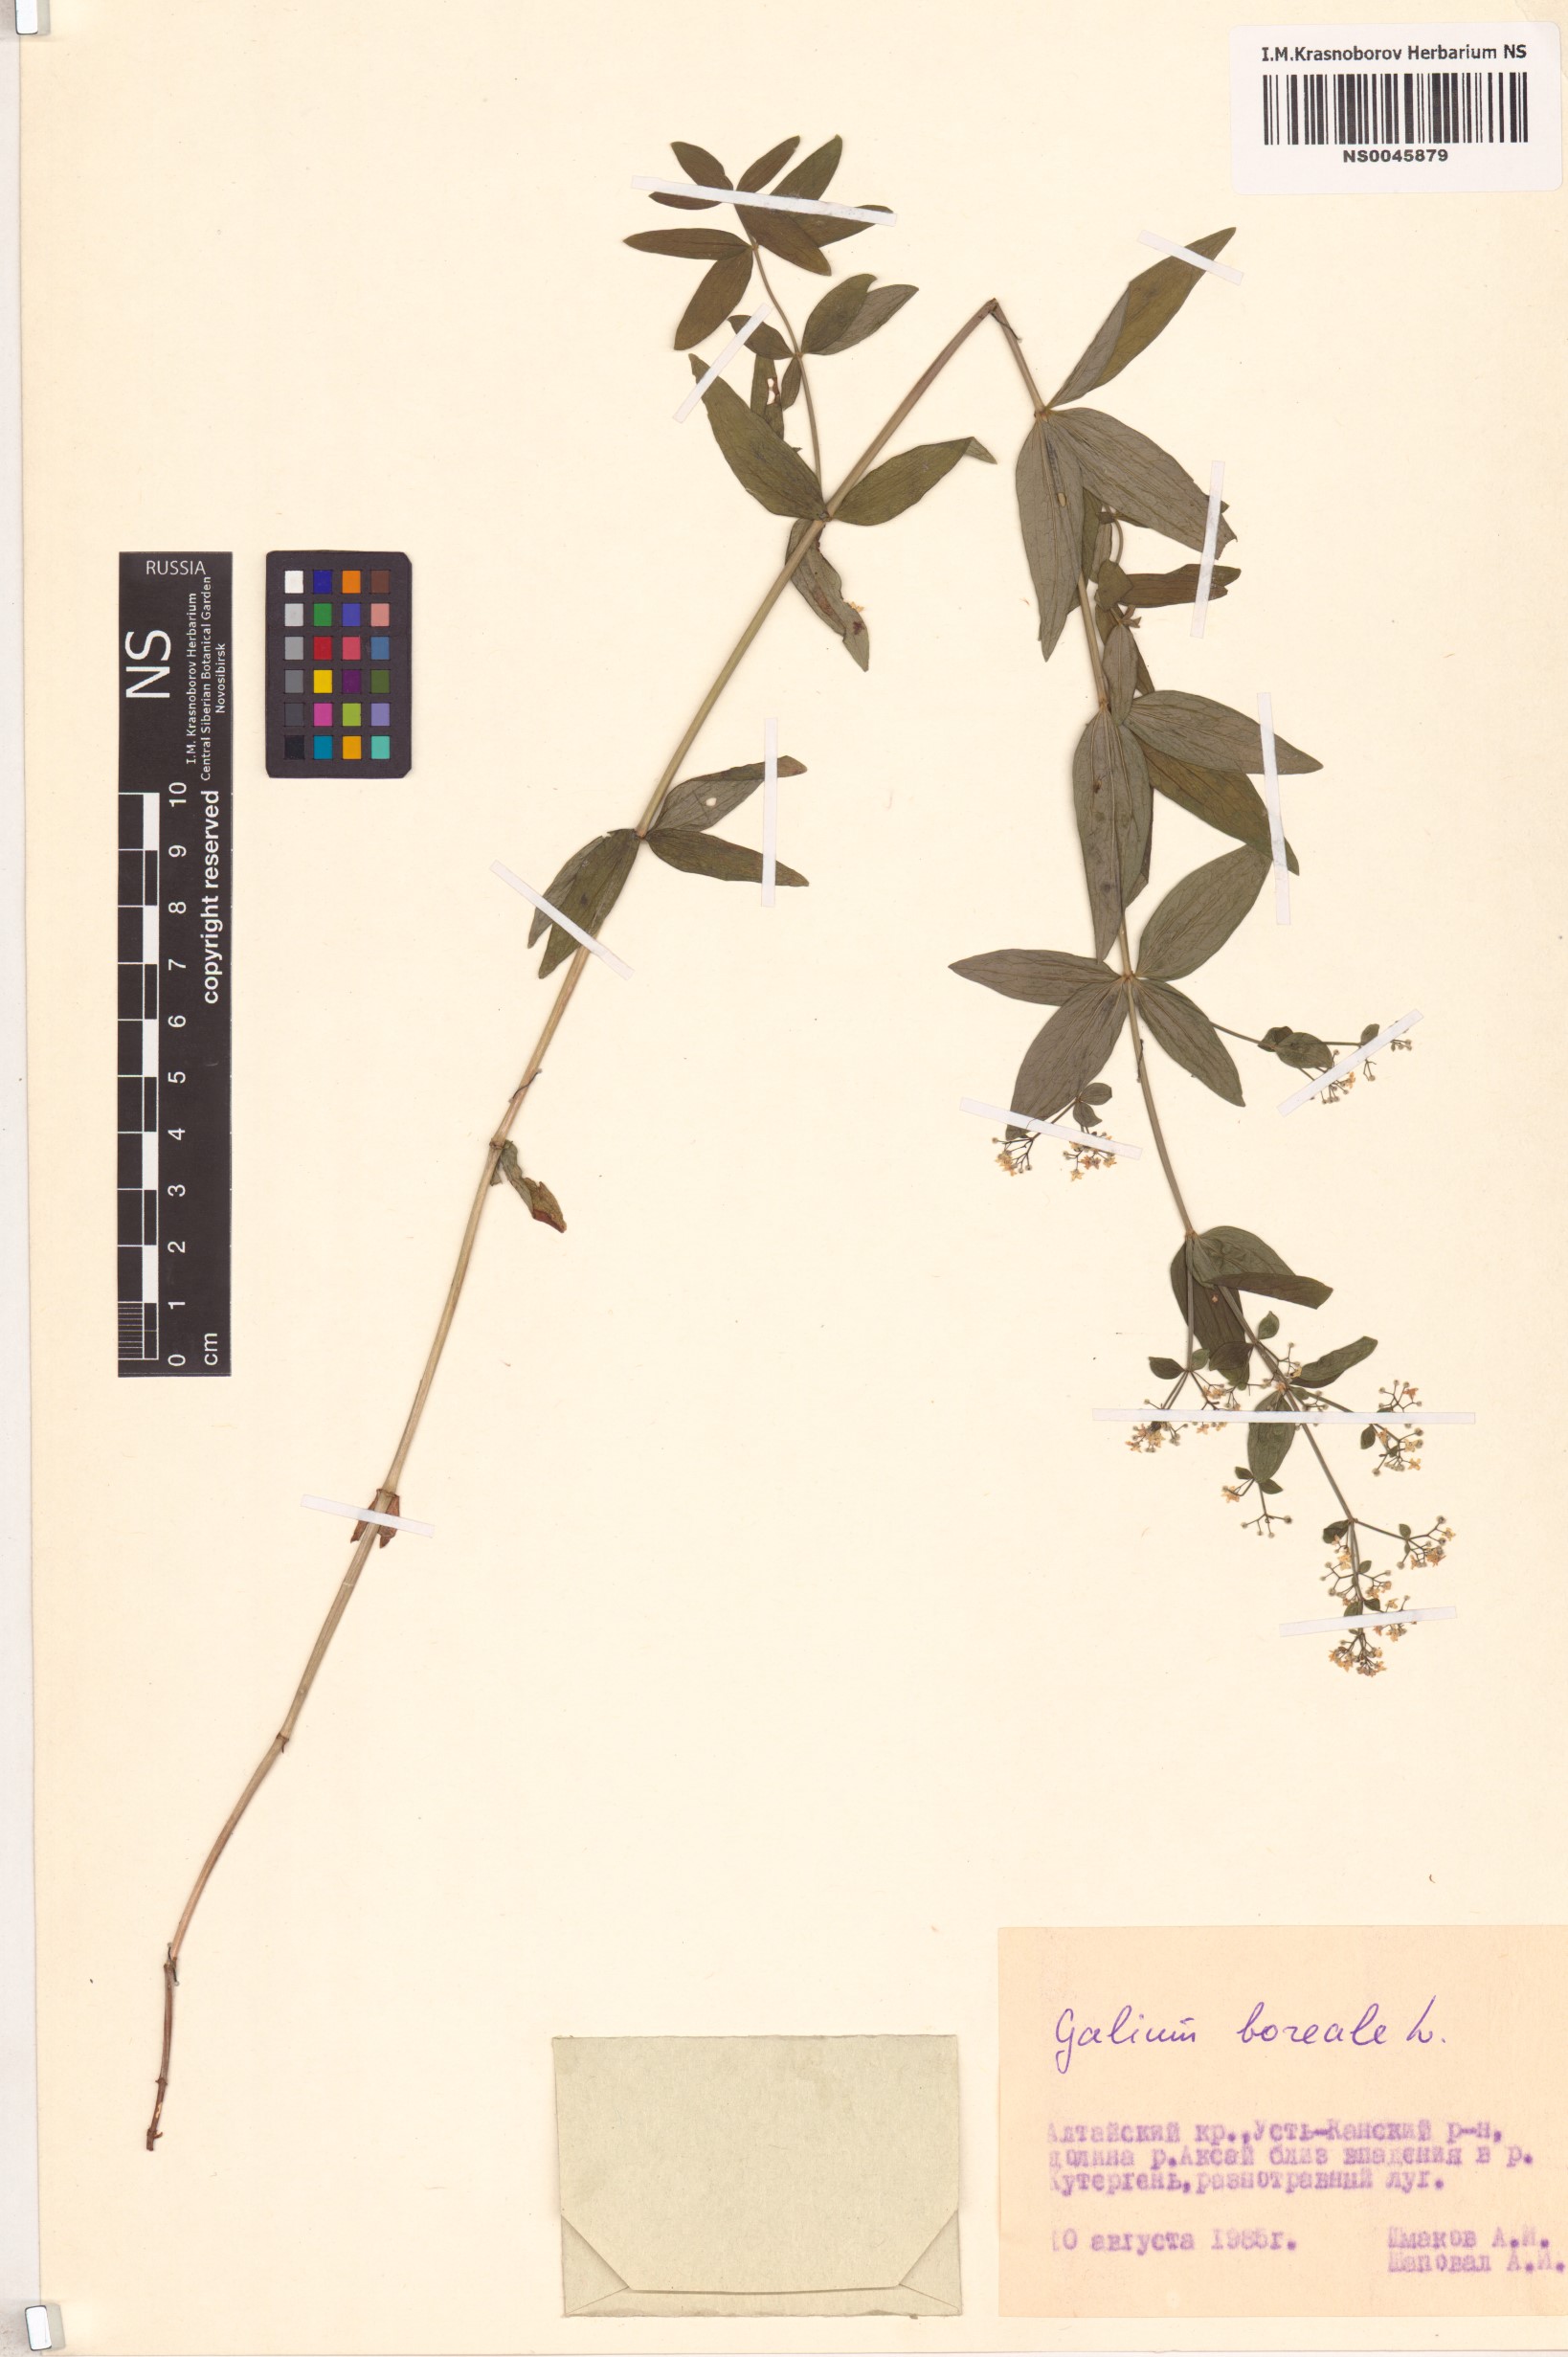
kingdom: Plantae
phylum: Tracheophyta
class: Magnoliopsida
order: Gentianales
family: Rubiaceae
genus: Galium
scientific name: Galium boreale
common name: Northern bedstraw
